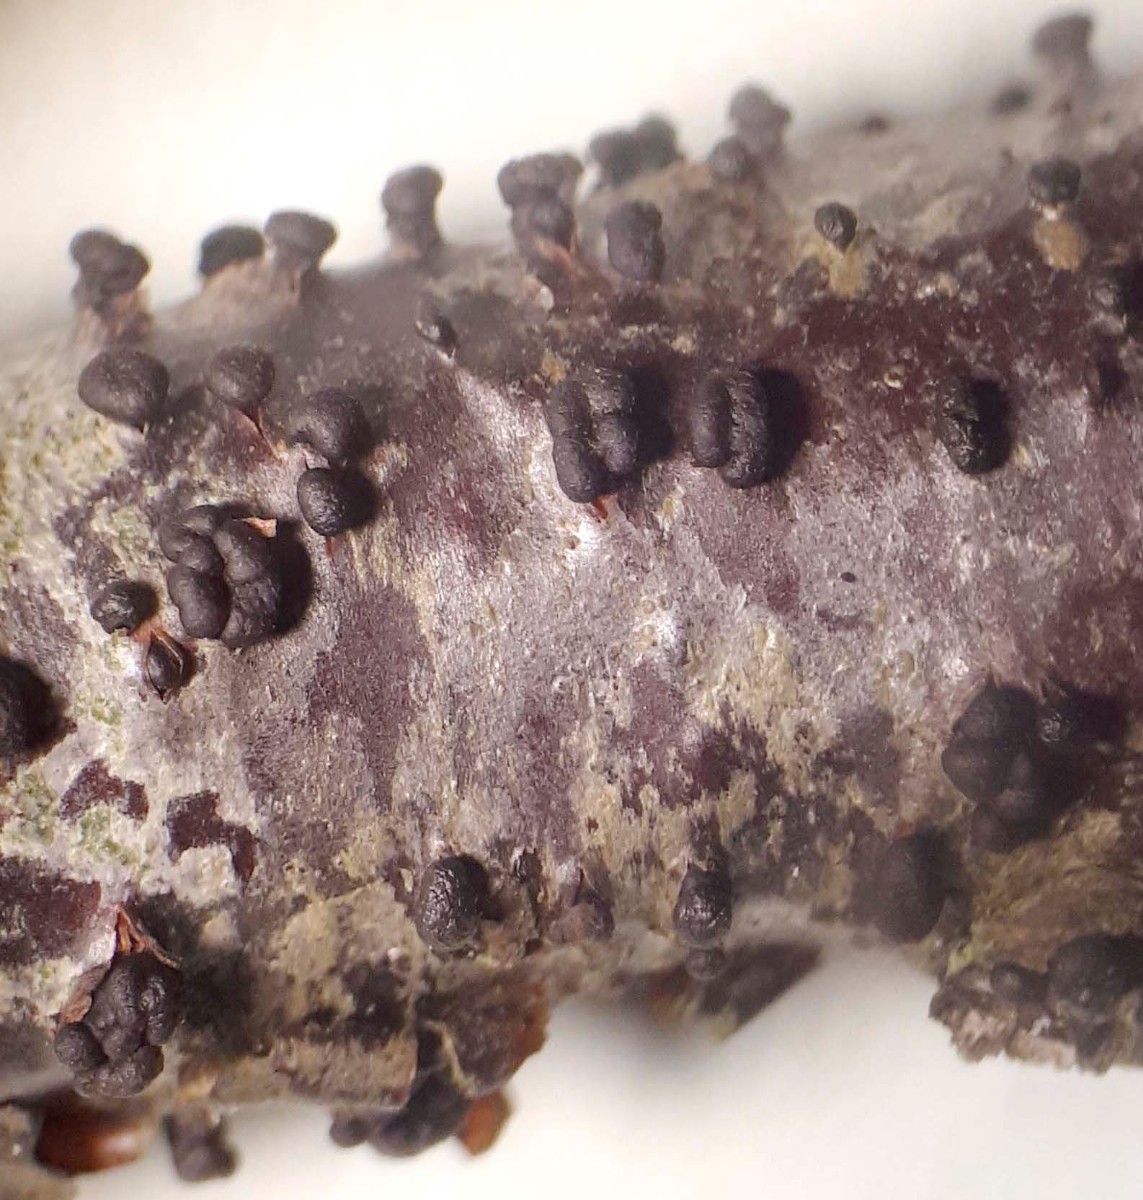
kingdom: Fungi
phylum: Ascomycota
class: Leotiomycetes
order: Helotiales
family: Godroniaceae
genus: Godronia
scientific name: Godronia ribis
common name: ribs-urneskive
